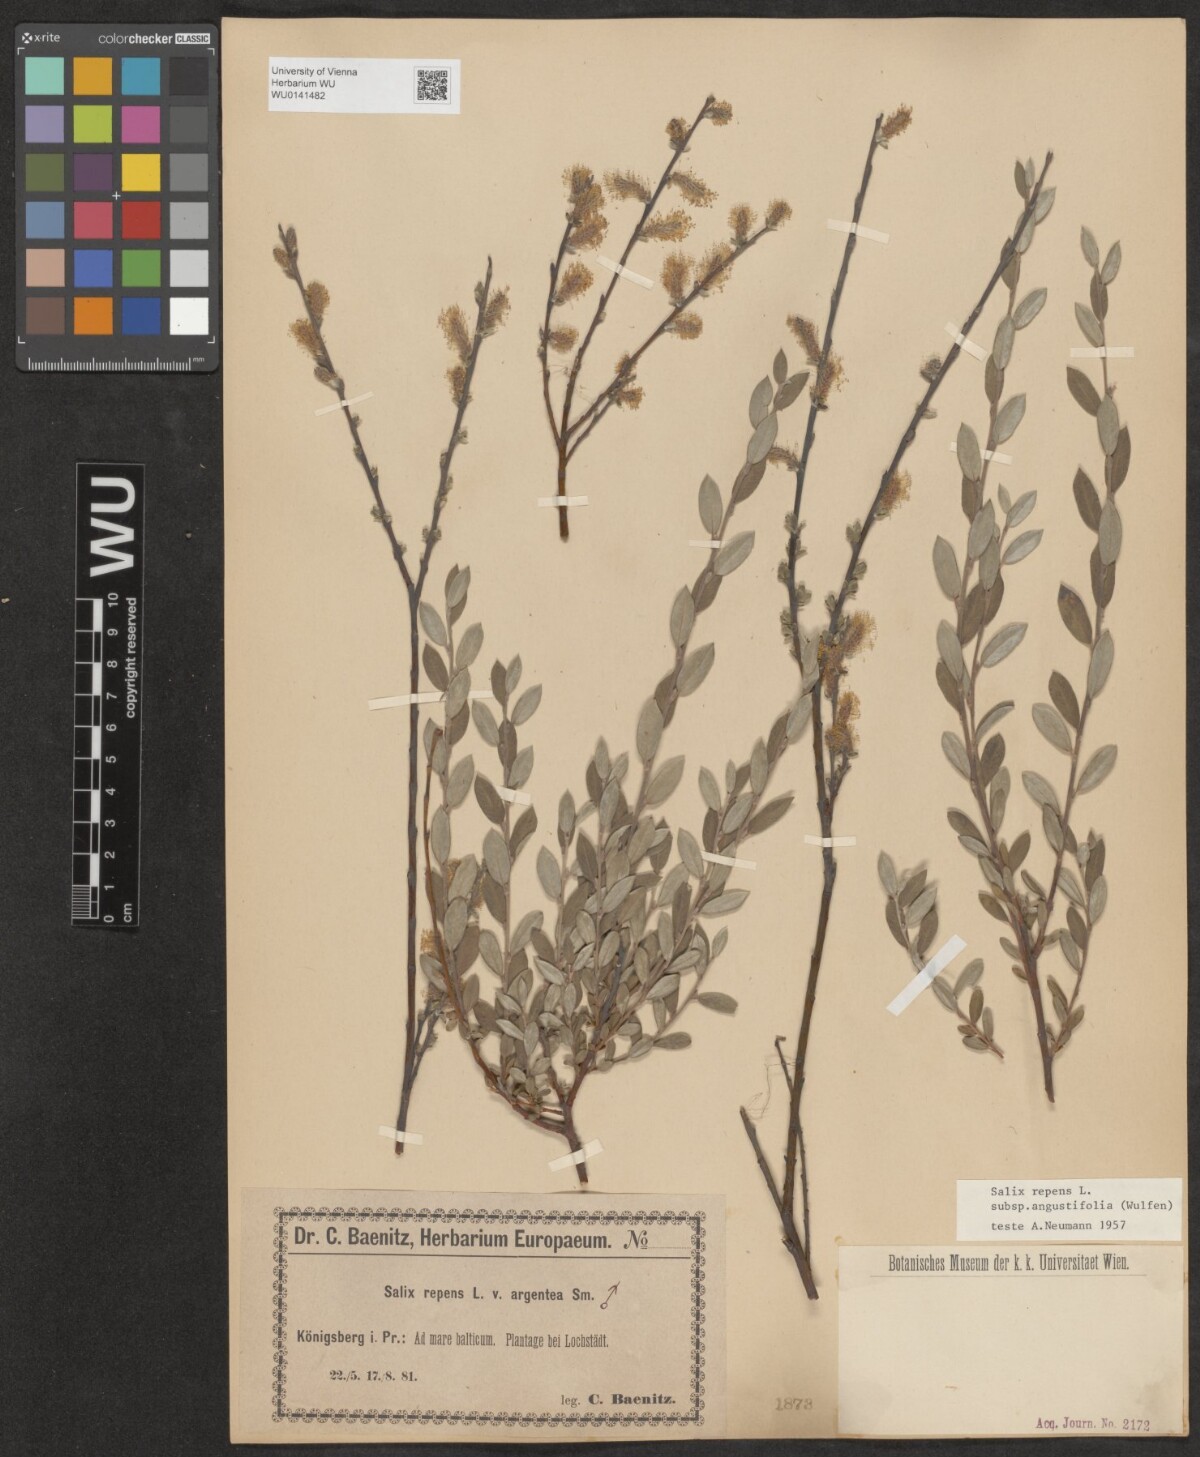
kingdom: Plantae
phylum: Tracheophyta
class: Magnoliopsida
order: Malpighiales
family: Salicaceae
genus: Salix
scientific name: Salix rosmarinifolia
